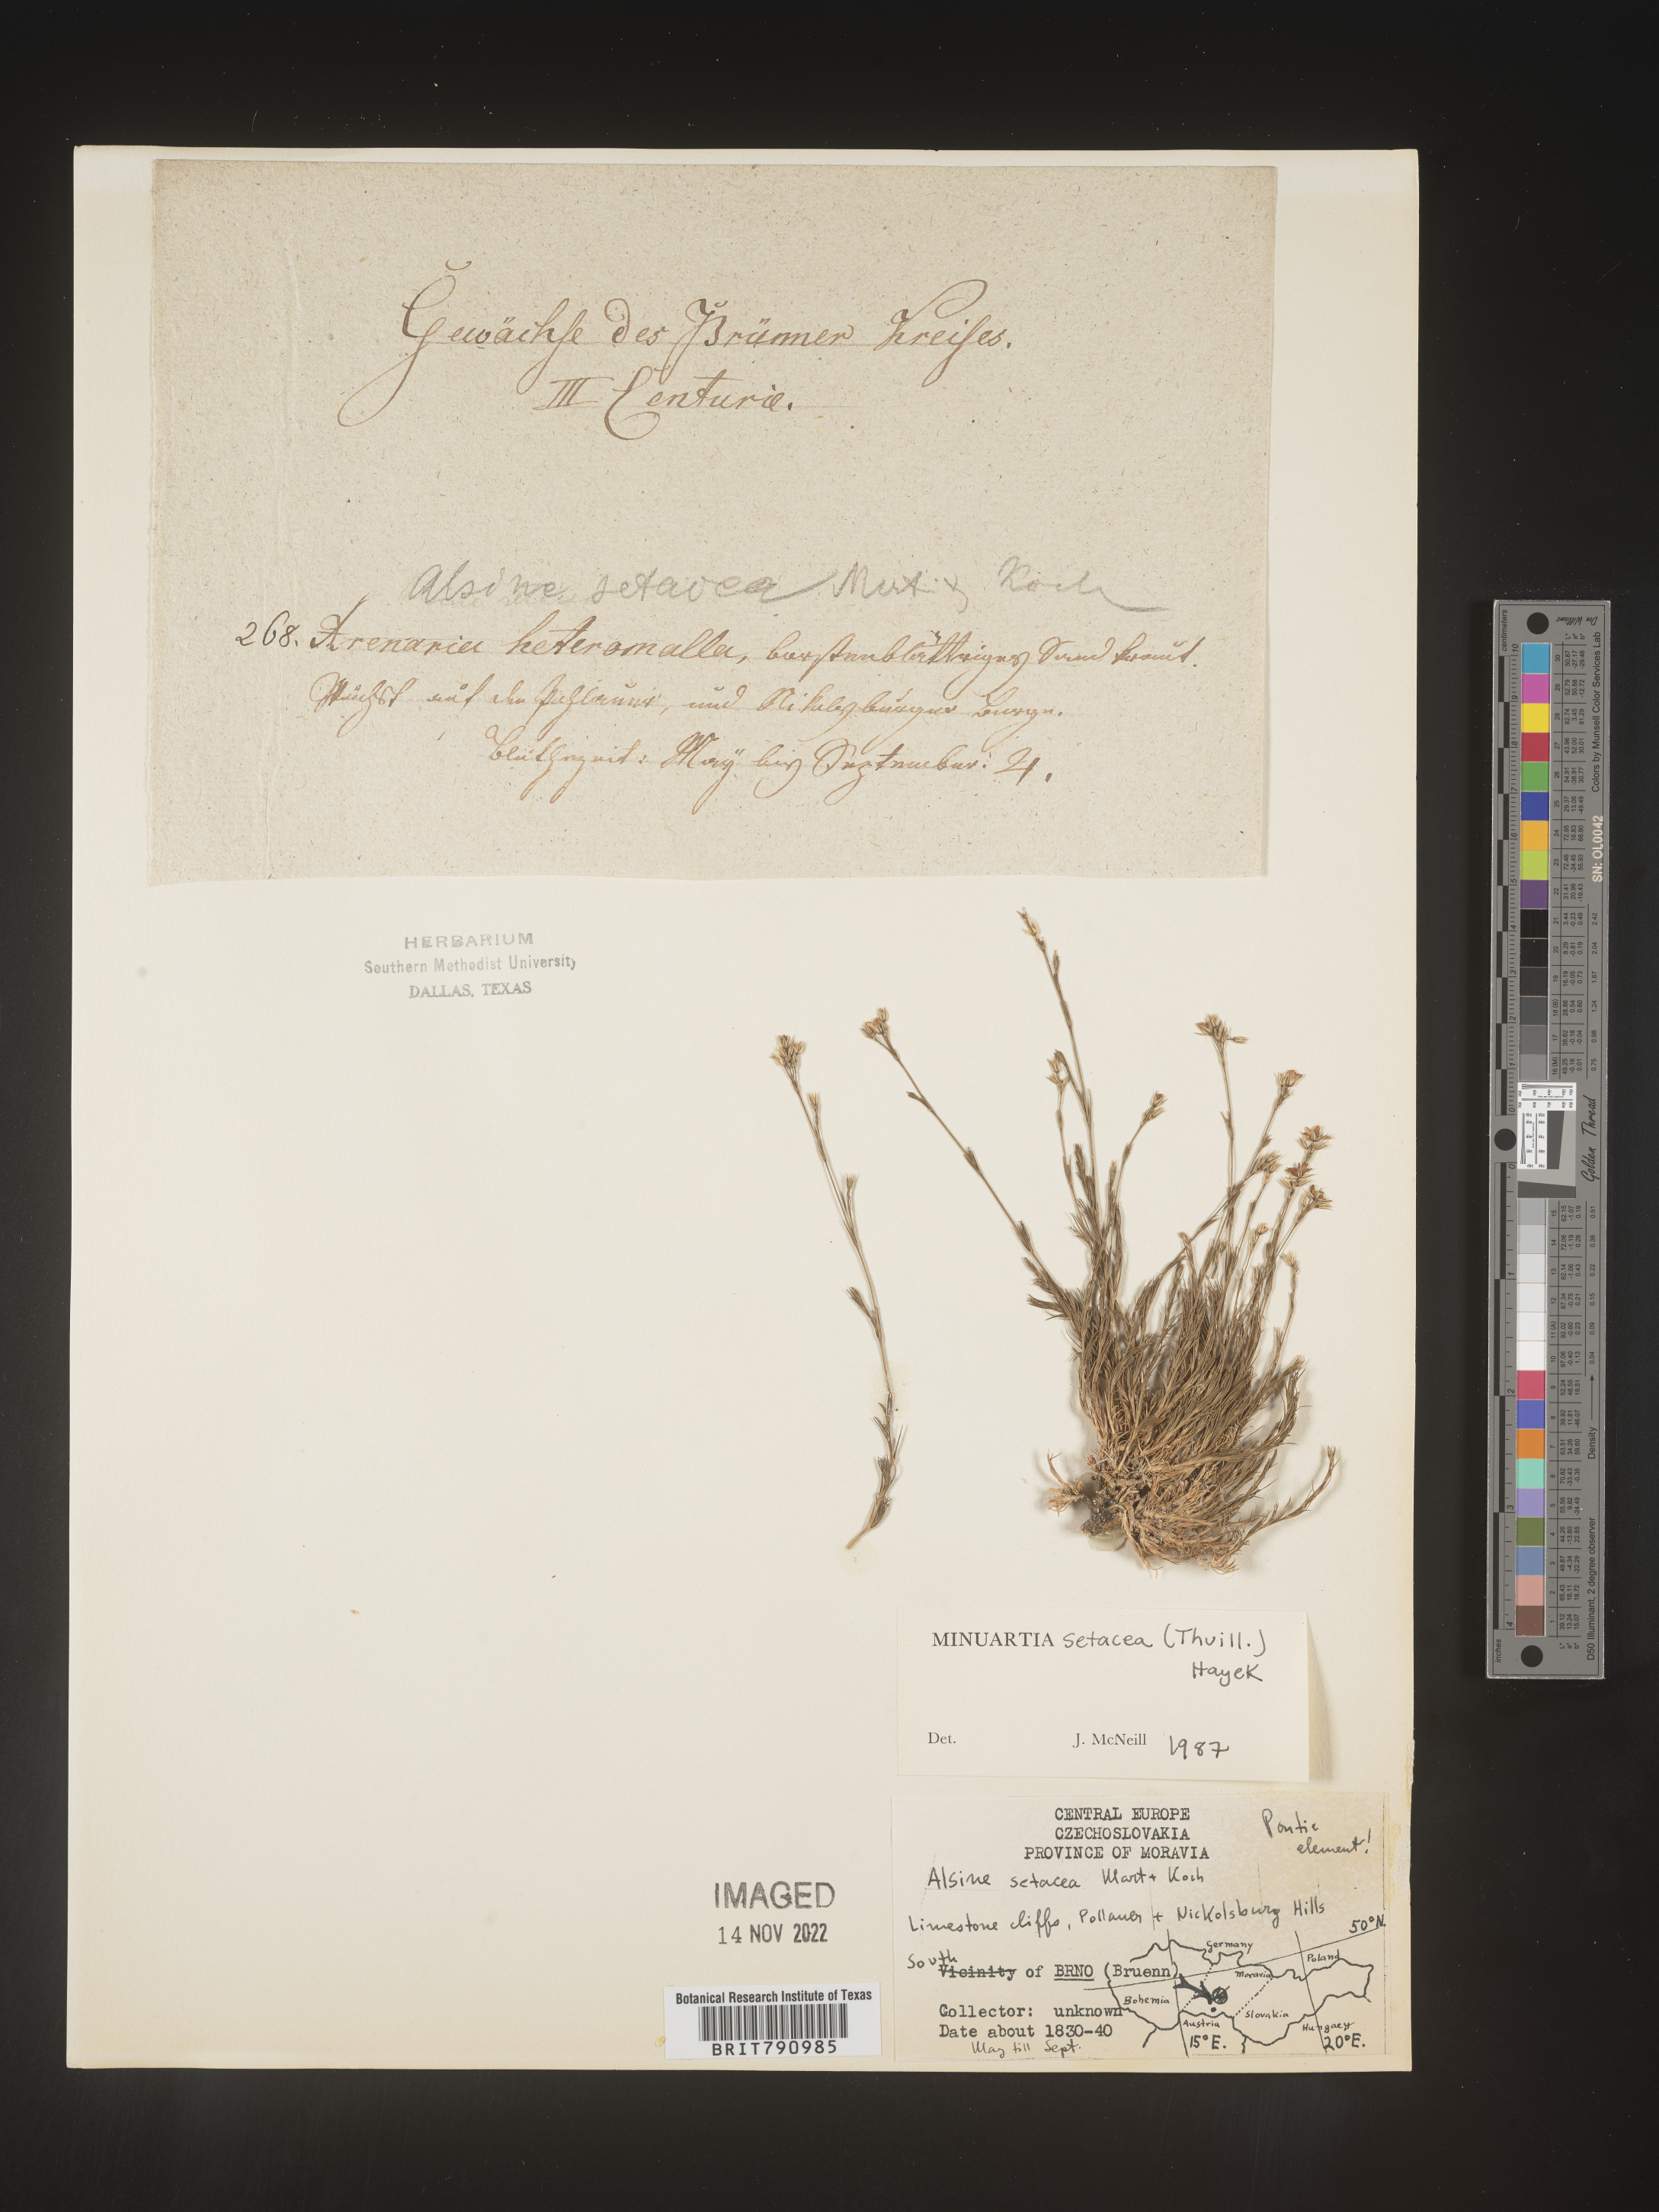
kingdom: Plantae
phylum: Tracheophyta
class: Magnoliopsida
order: Caryophyllales
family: Caryophyllaceae
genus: Minuartia
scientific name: Minuartia
